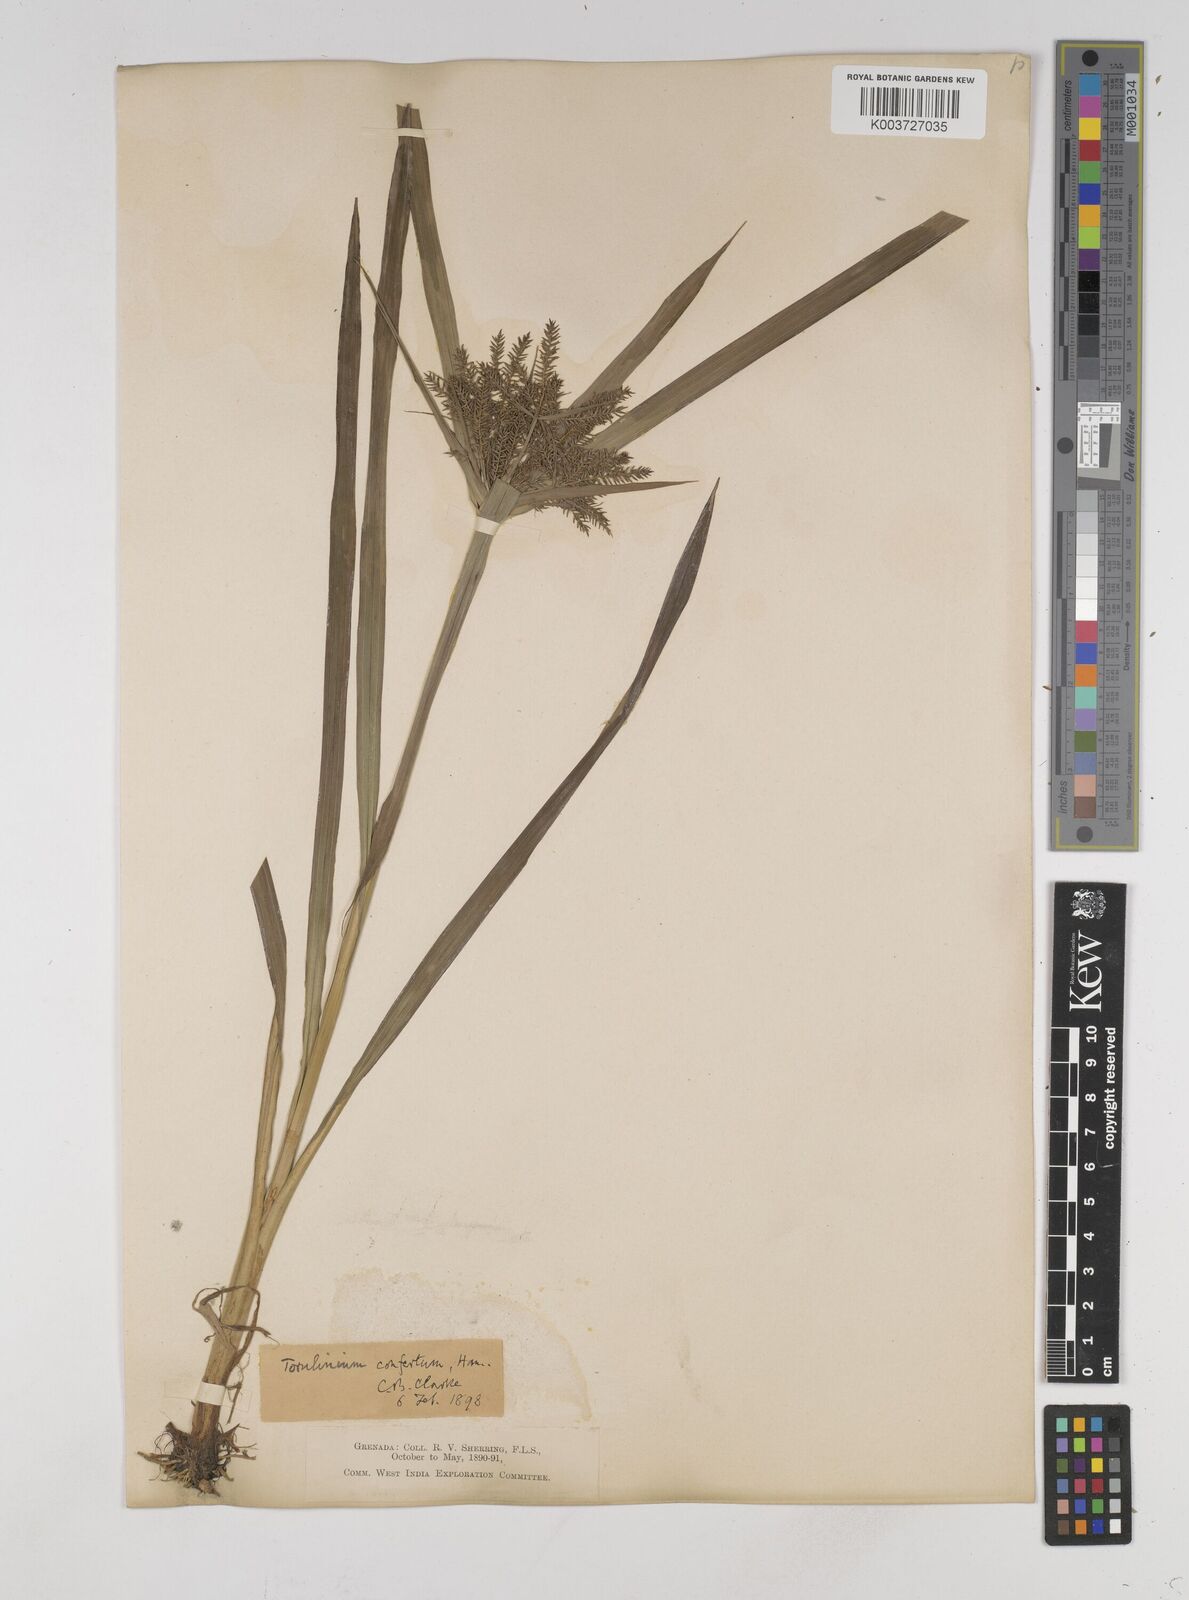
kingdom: Plantae
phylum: Tracheophyta
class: Liliopsida
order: Poales
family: Cyperaceae
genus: Cyperus
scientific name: Cyperus odoratus
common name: Fragrant flatsedge
